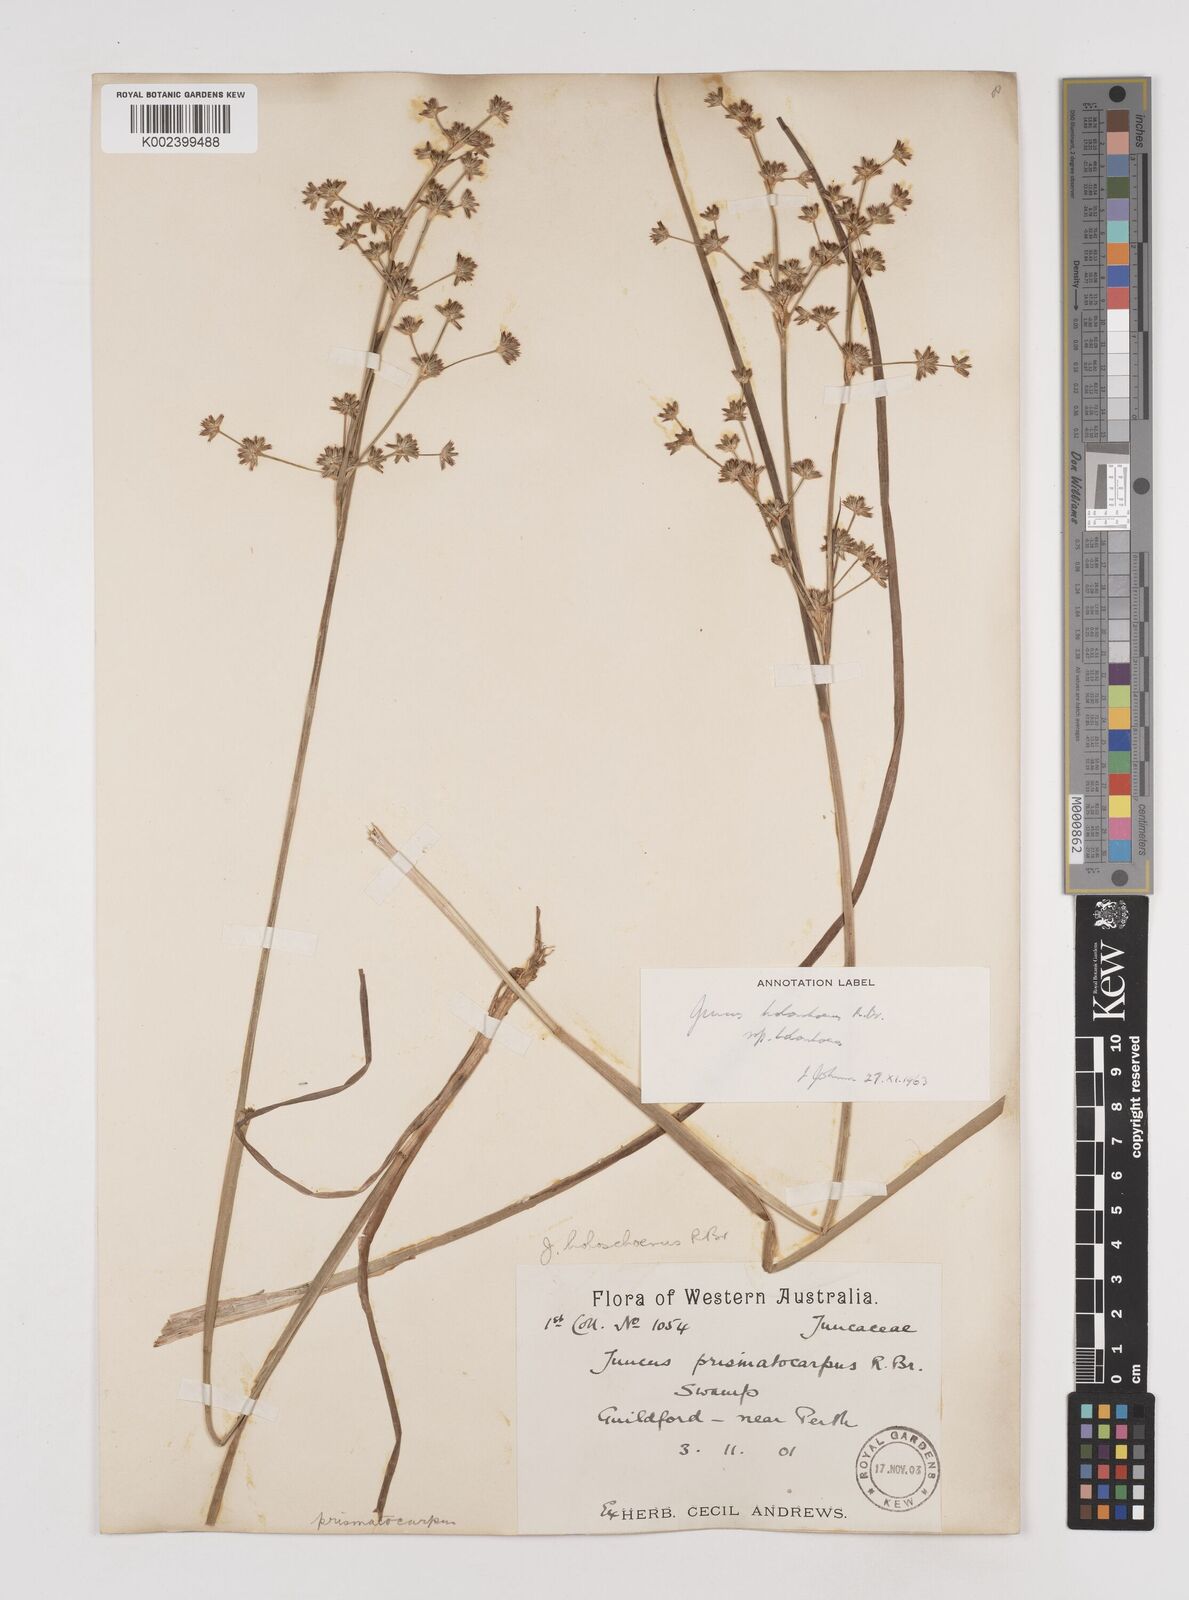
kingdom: Plantae
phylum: Tracheophyta
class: Liliopsida
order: Poales
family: Juncaceae
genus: Juncus
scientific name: Juncus holoschoenus
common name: Joint-leaf rush
